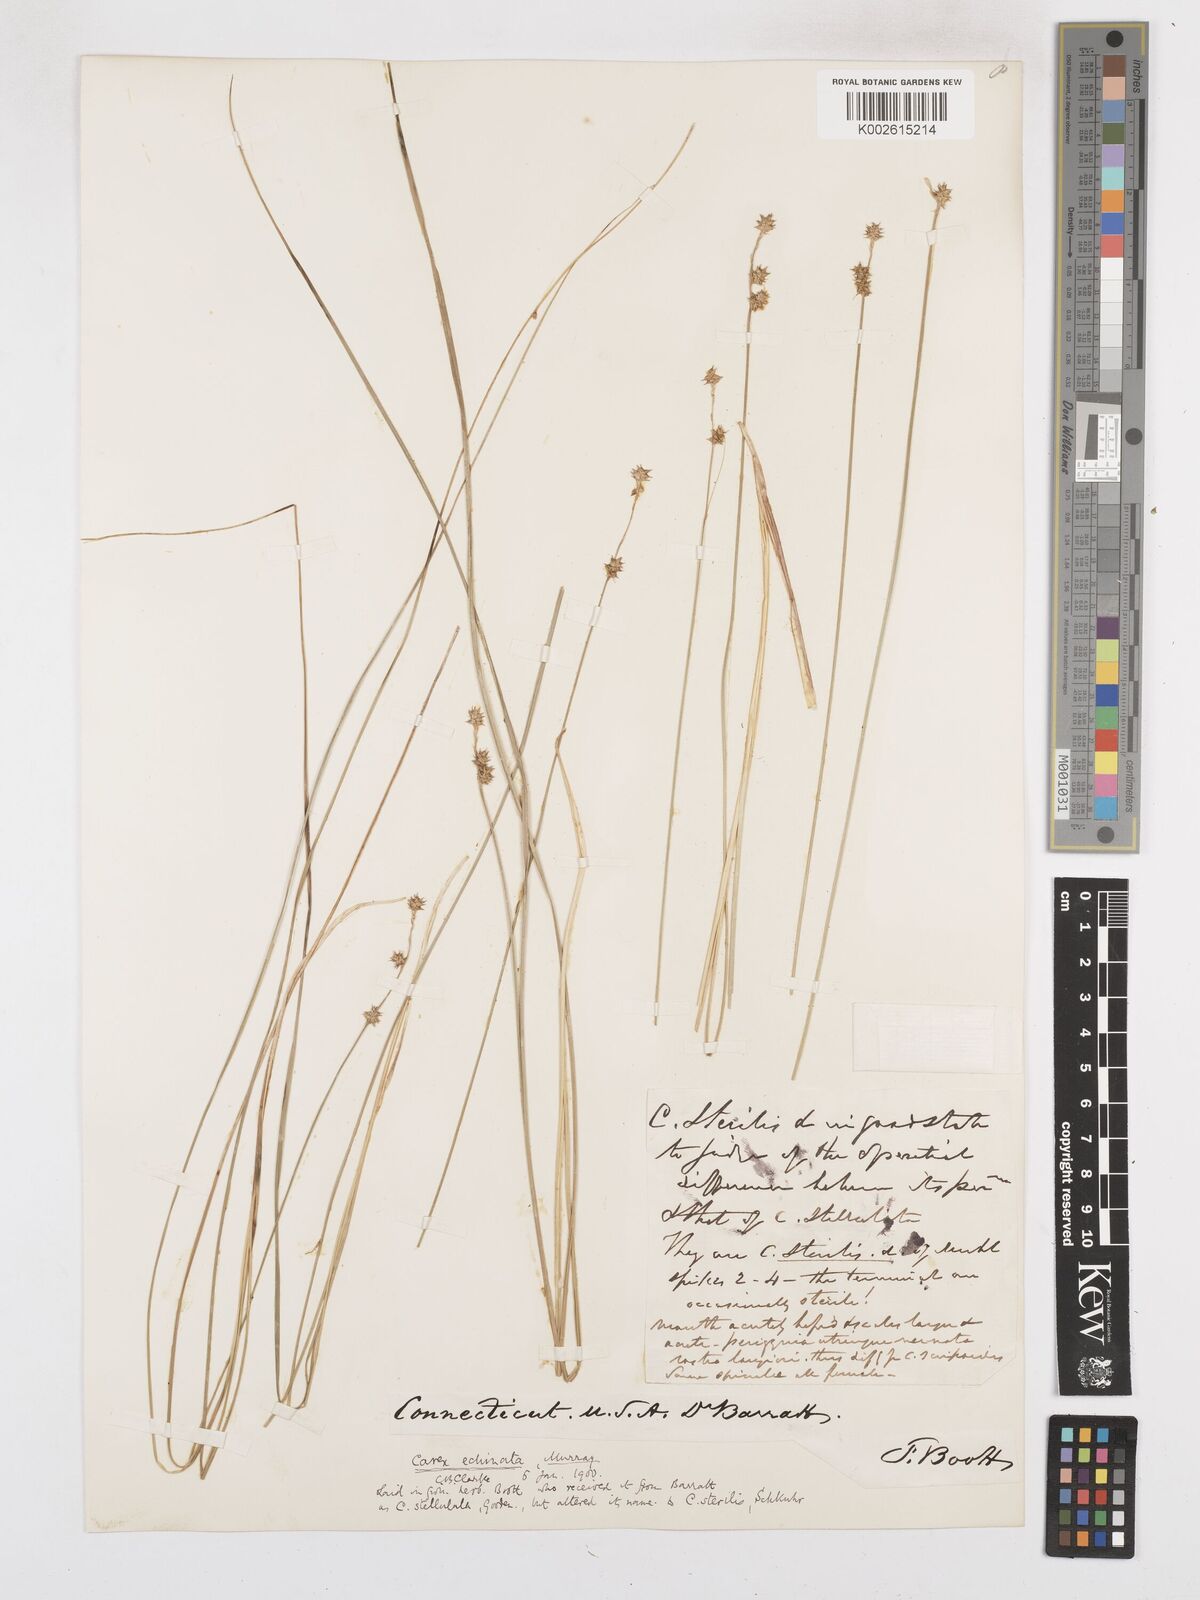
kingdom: Plantae
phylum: Tracheophyta
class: Liliopsida
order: Poales
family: Cyperaceae
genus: Carex
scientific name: Carex echinata
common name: Star sedge
